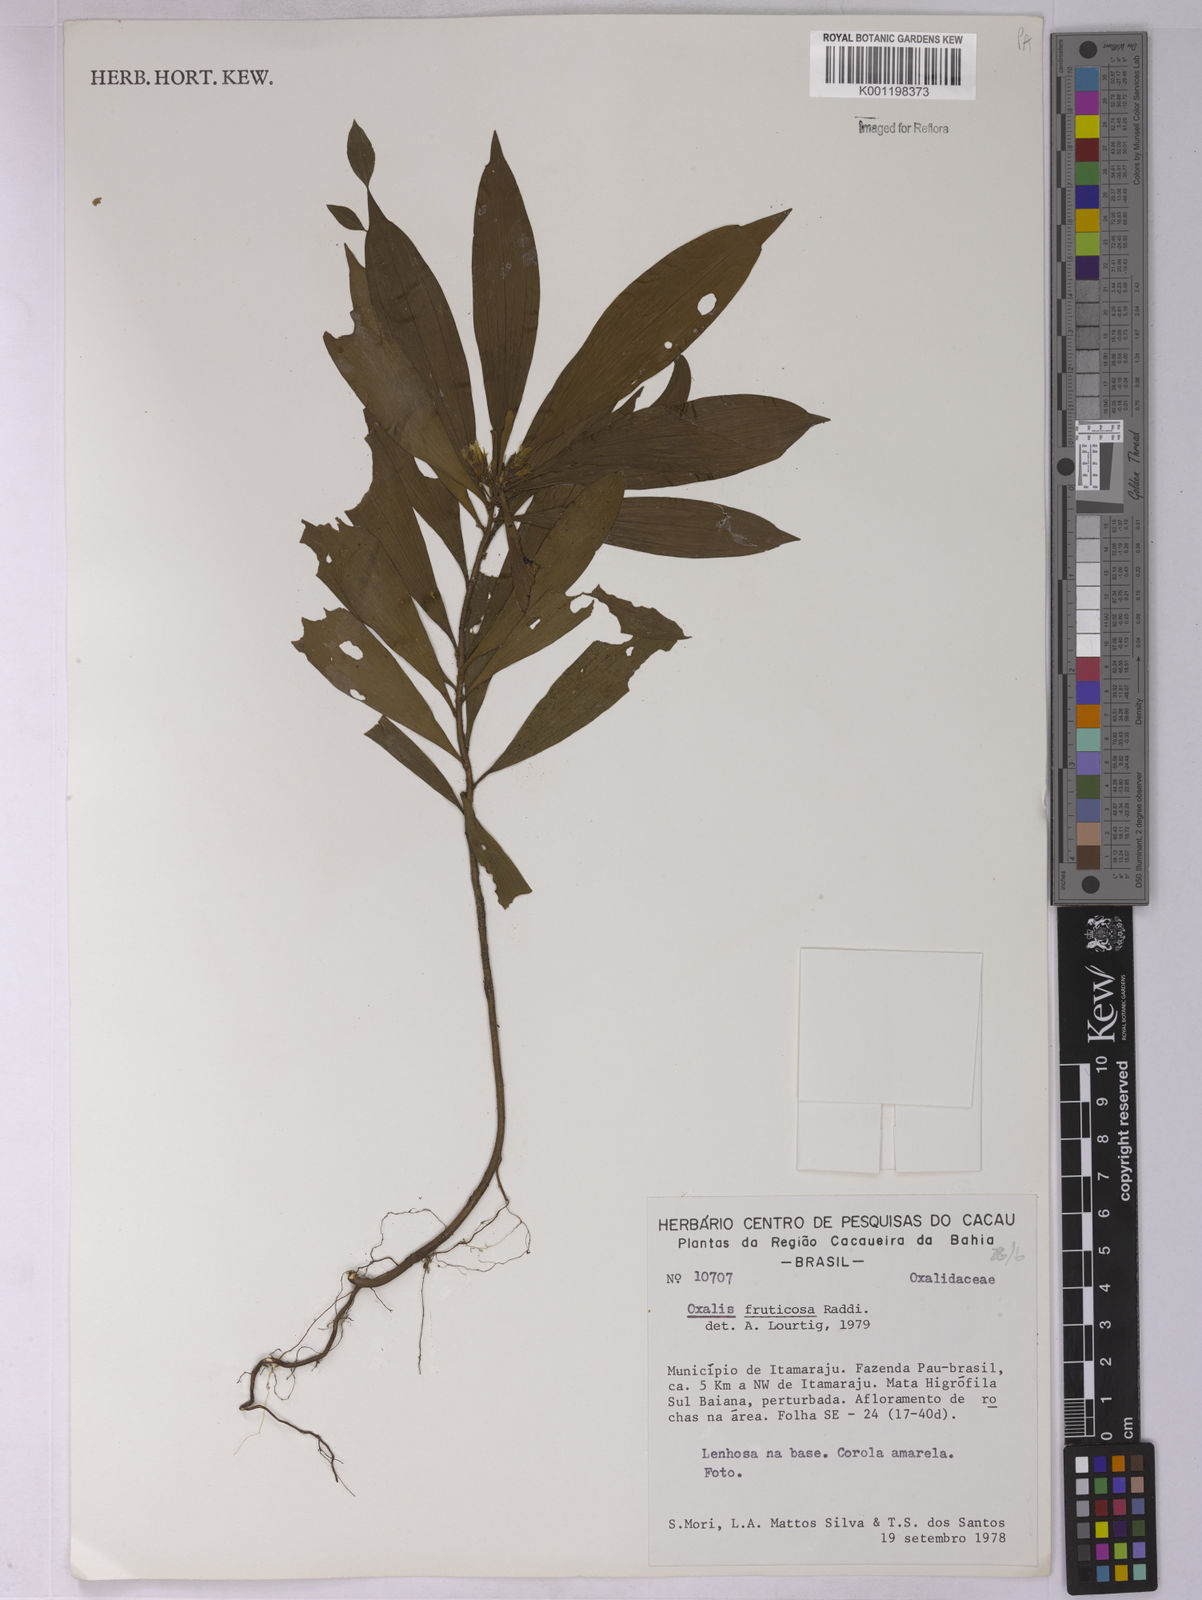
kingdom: Plantae
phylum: Tracheophyta
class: Magnoliopsida
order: Oxalidales
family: Oxalidaceae
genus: Oxalis
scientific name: Oxalis fruticosa
